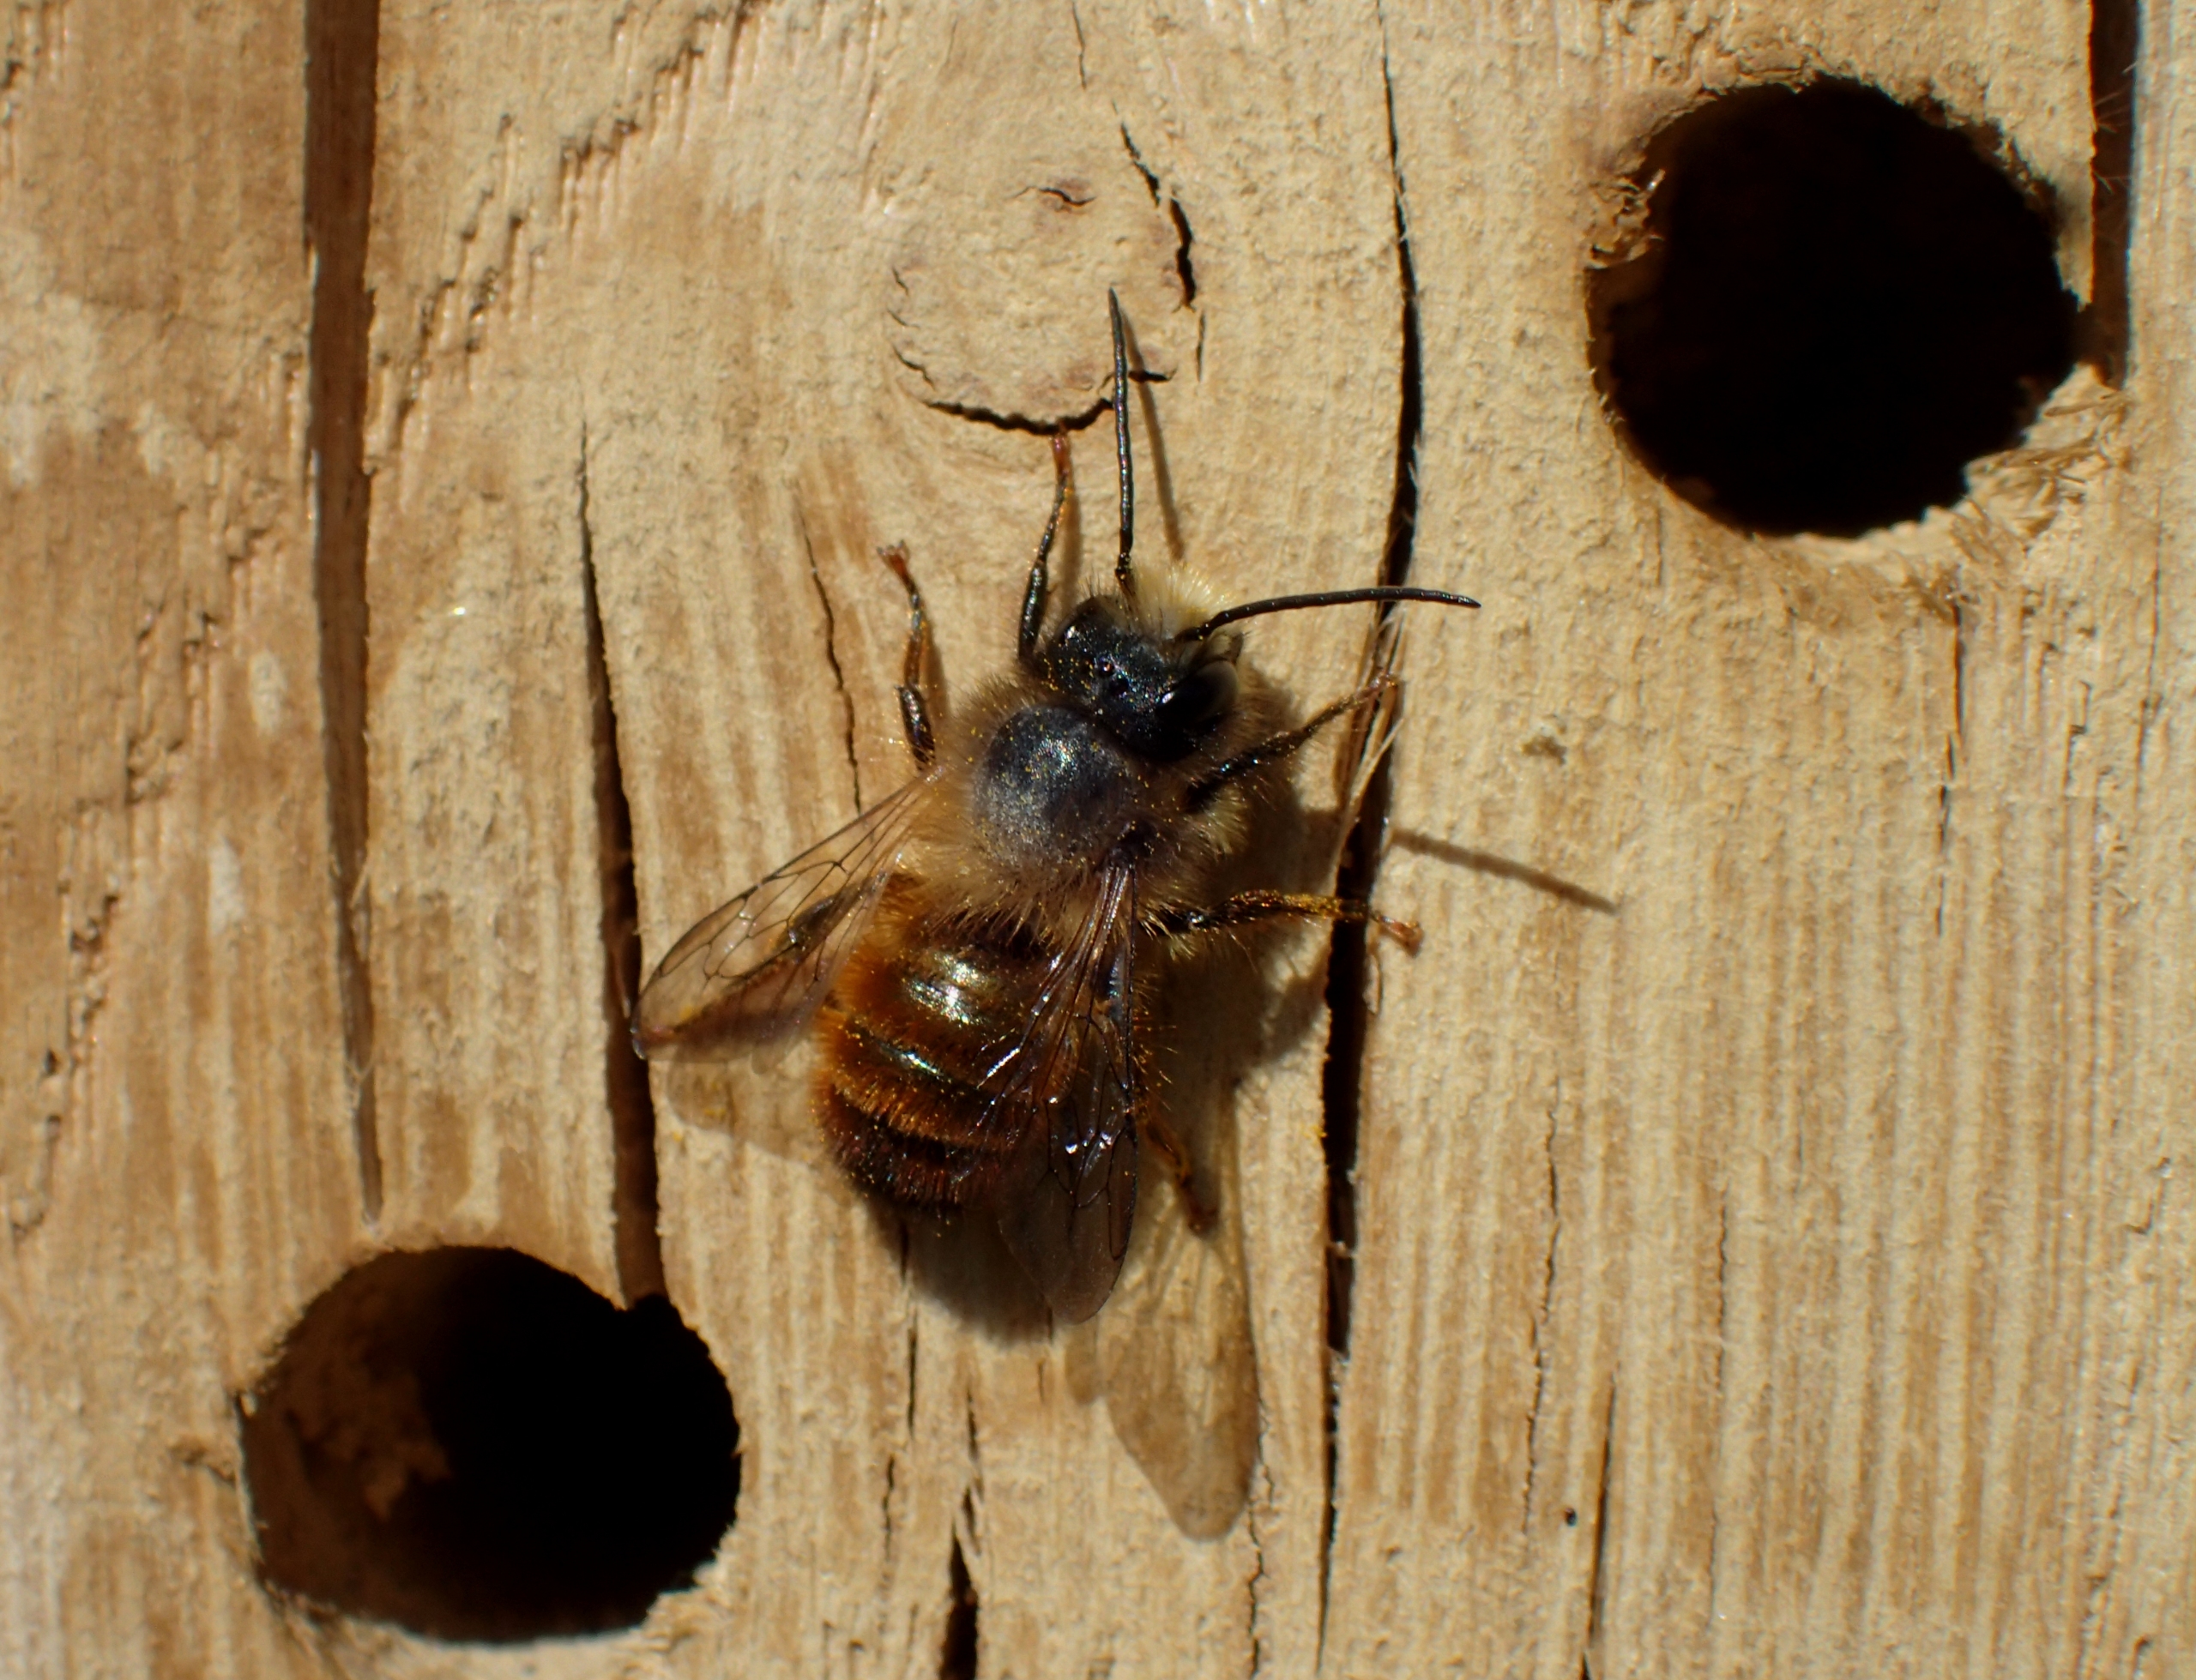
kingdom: Animalia
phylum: Arthropoda
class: Insecta
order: Hymenoptera
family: Megachilidae
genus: Osmia
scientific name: Osmia bicornis
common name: Rød murerbi
